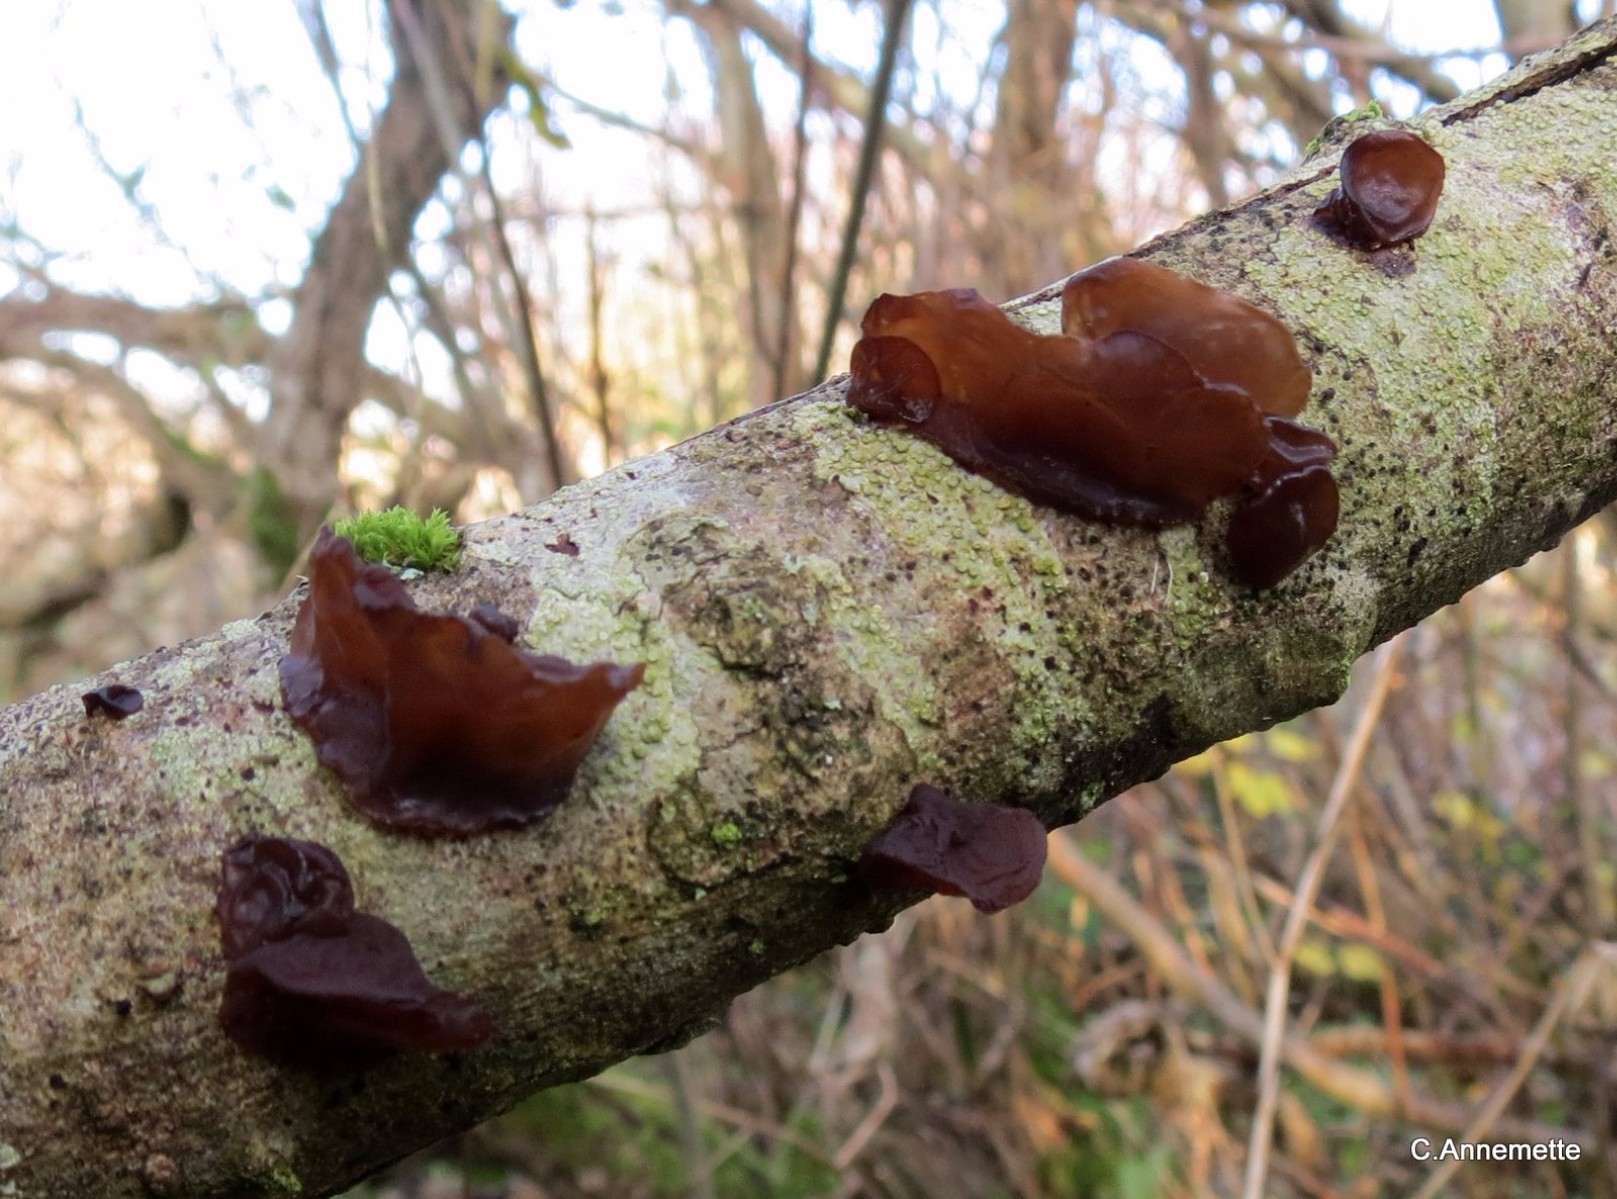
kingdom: Fungi
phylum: Basidiomycota
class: Agaricomycetes
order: Auriculariales
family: Auriculariaceae
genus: Exidia
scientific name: Exidia recisa
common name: pile-bævretop
